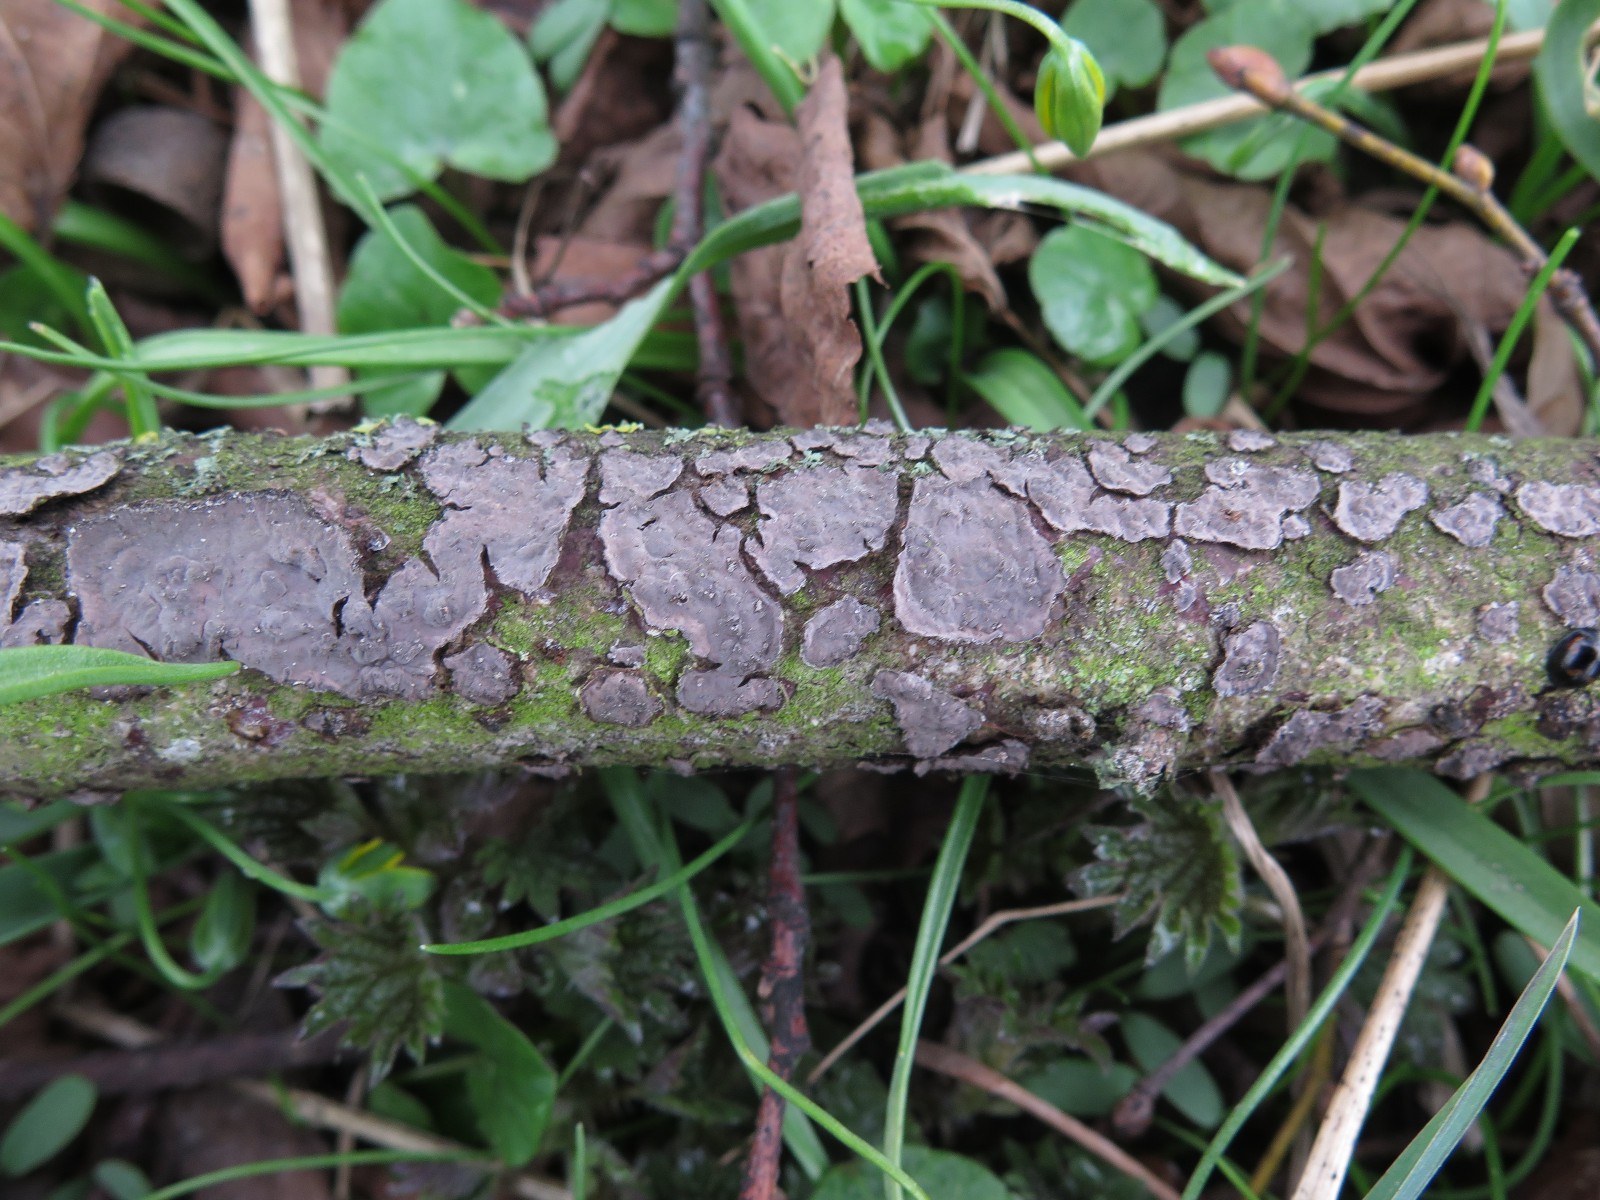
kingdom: Fungi
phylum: Basidiomycota
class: Agaricomycetes
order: Russulales
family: Peniophoraceae
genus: Peniophora
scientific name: Peniophora rufomarginata
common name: linde-voksskind
